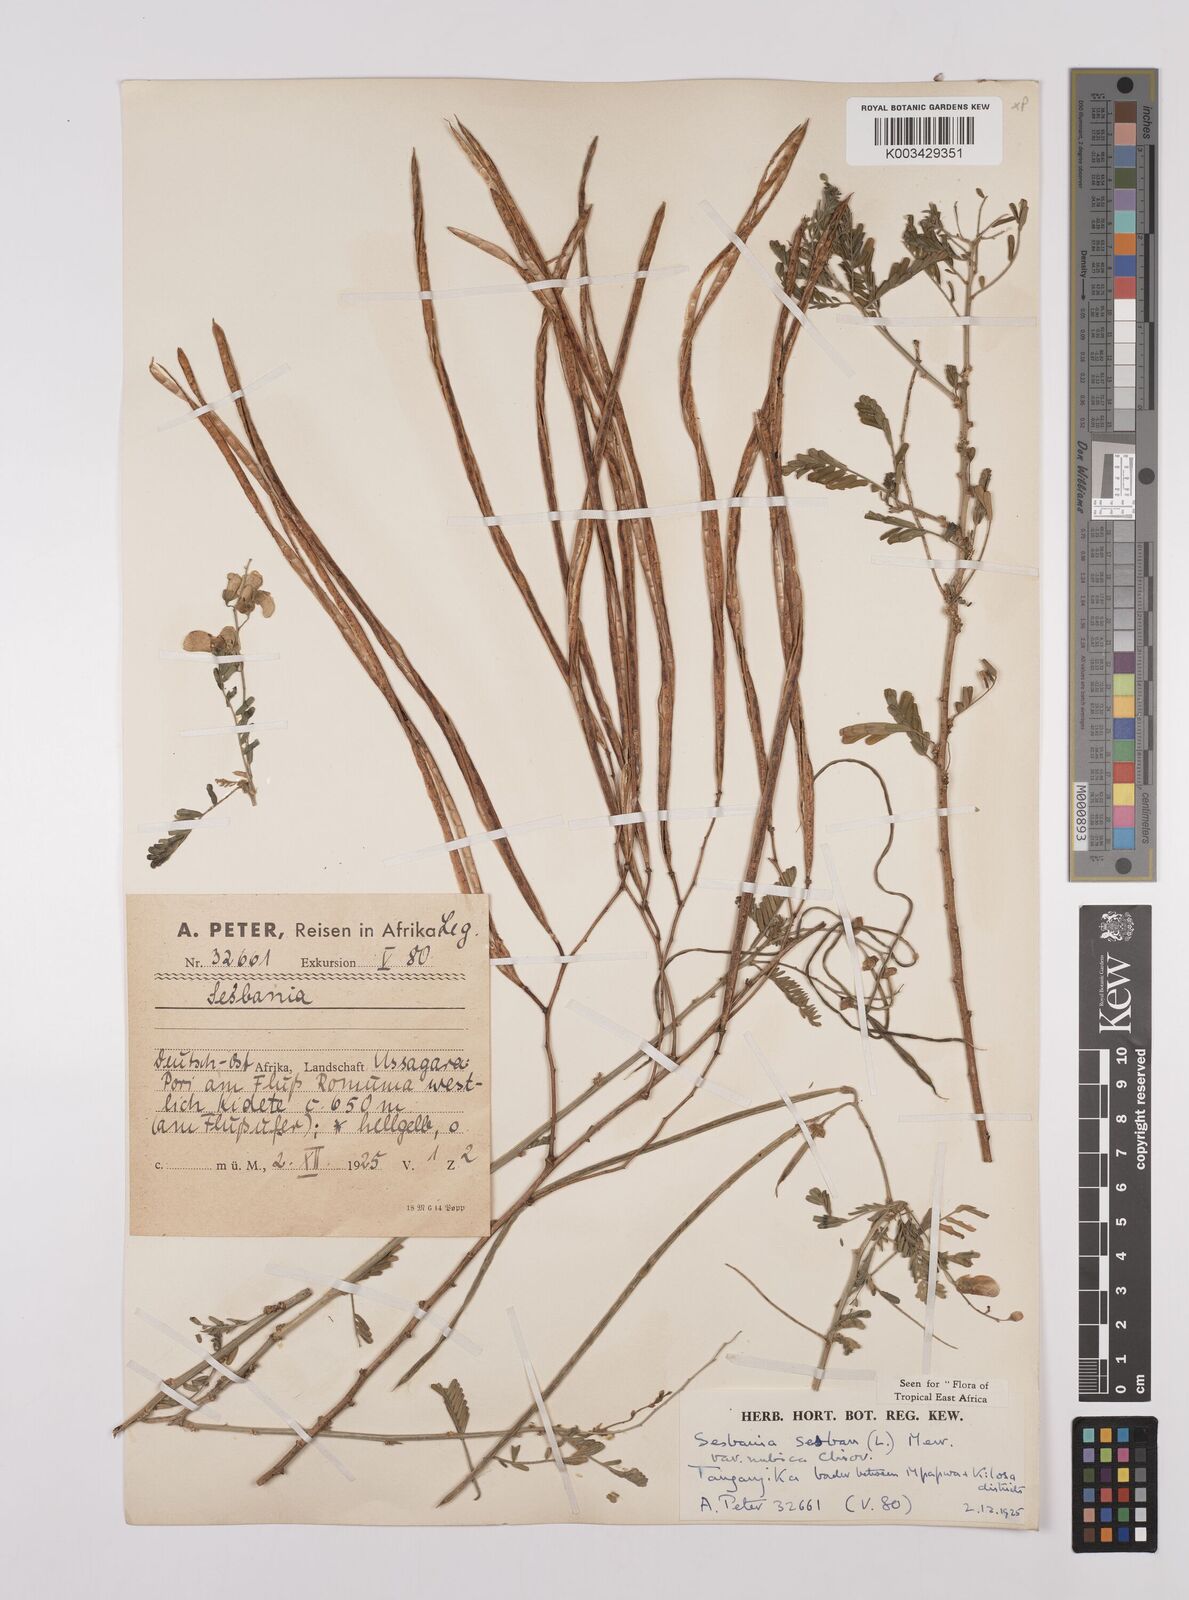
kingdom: Plantae
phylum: Tracheophyta
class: Magnoliopsida
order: Fabales
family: Fabaceae
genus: Sesbania
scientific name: Sesbania sesban
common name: Egyptian sesban
